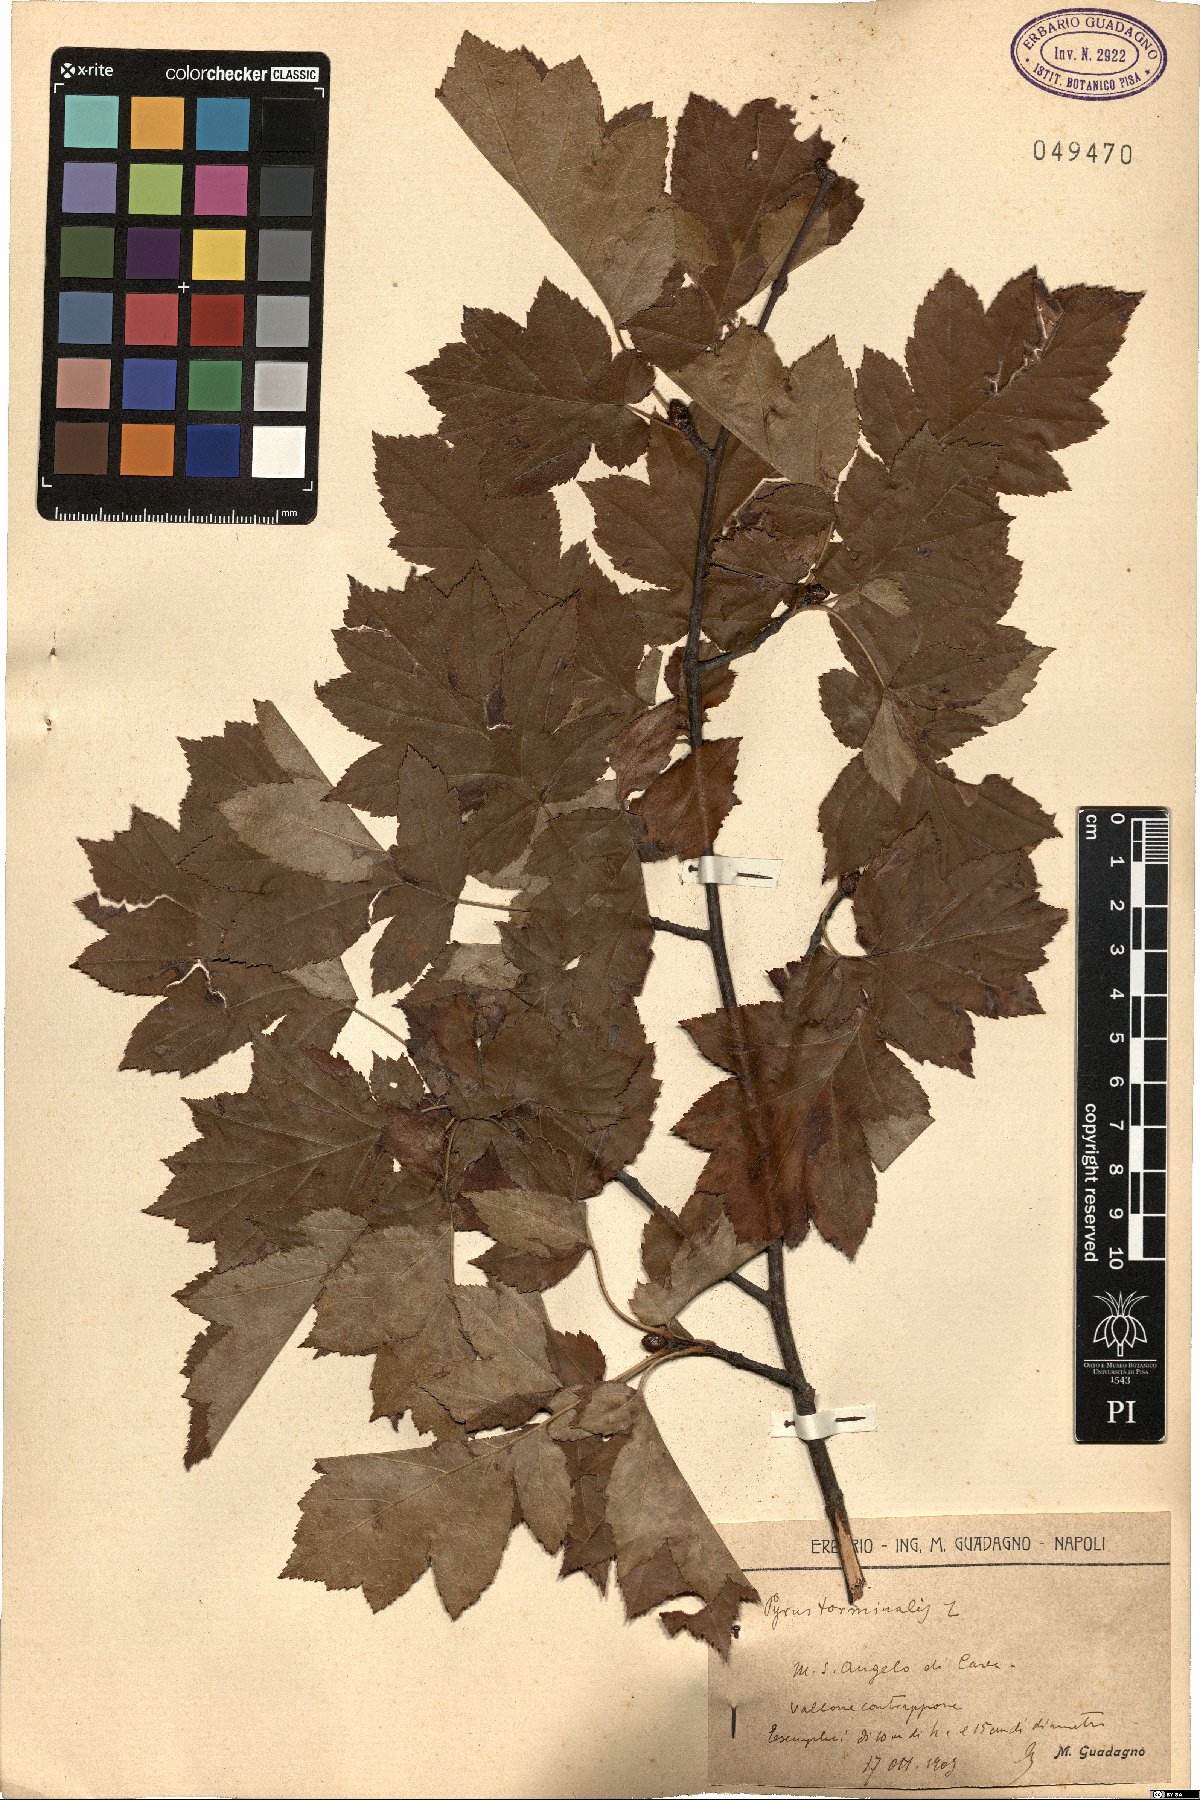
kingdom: Plantae
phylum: Tracheophyta
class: Magnoliopsida
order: Rosales
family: Rosaceae
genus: Torminalis
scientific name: Torminalis glaberrima
